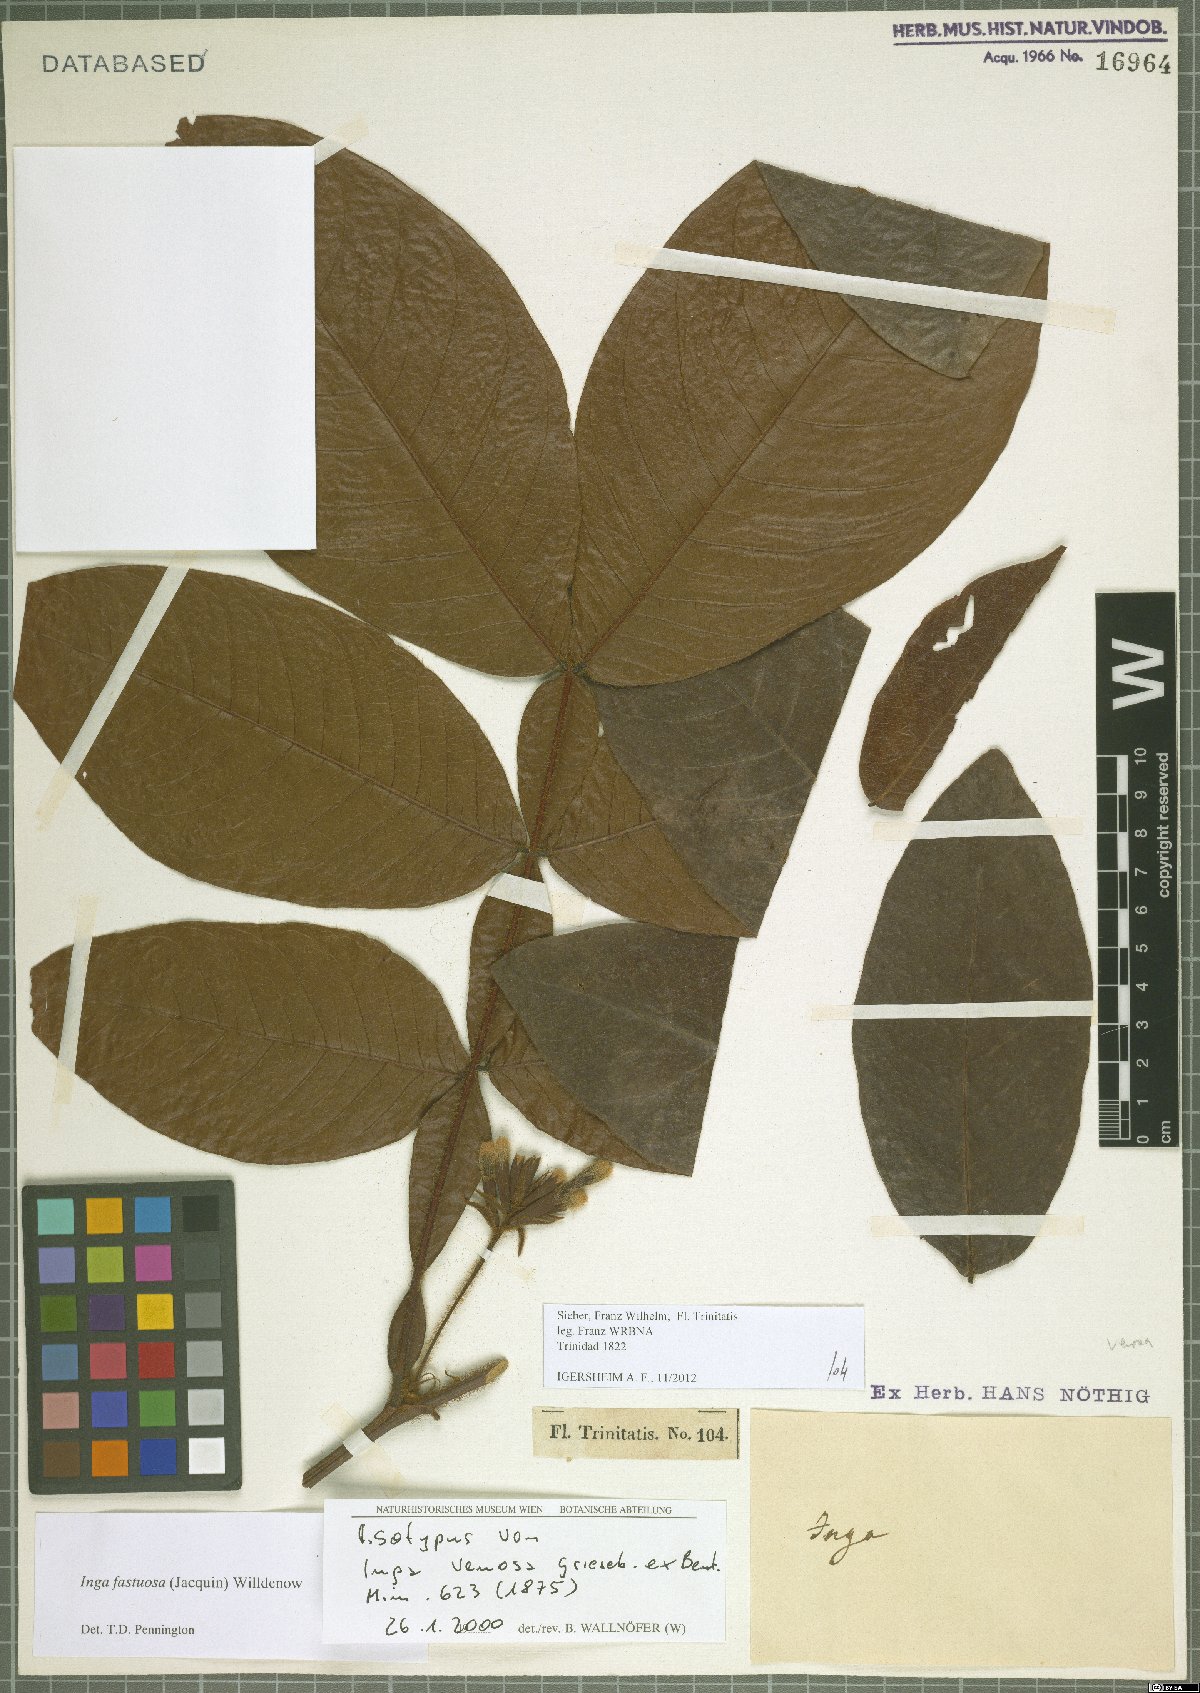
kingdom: Plantae
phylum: Tracheophyta
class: Magnoliopsida
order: Fabales
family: Fabaceae
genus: Inga
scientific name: Inga fastuosa
